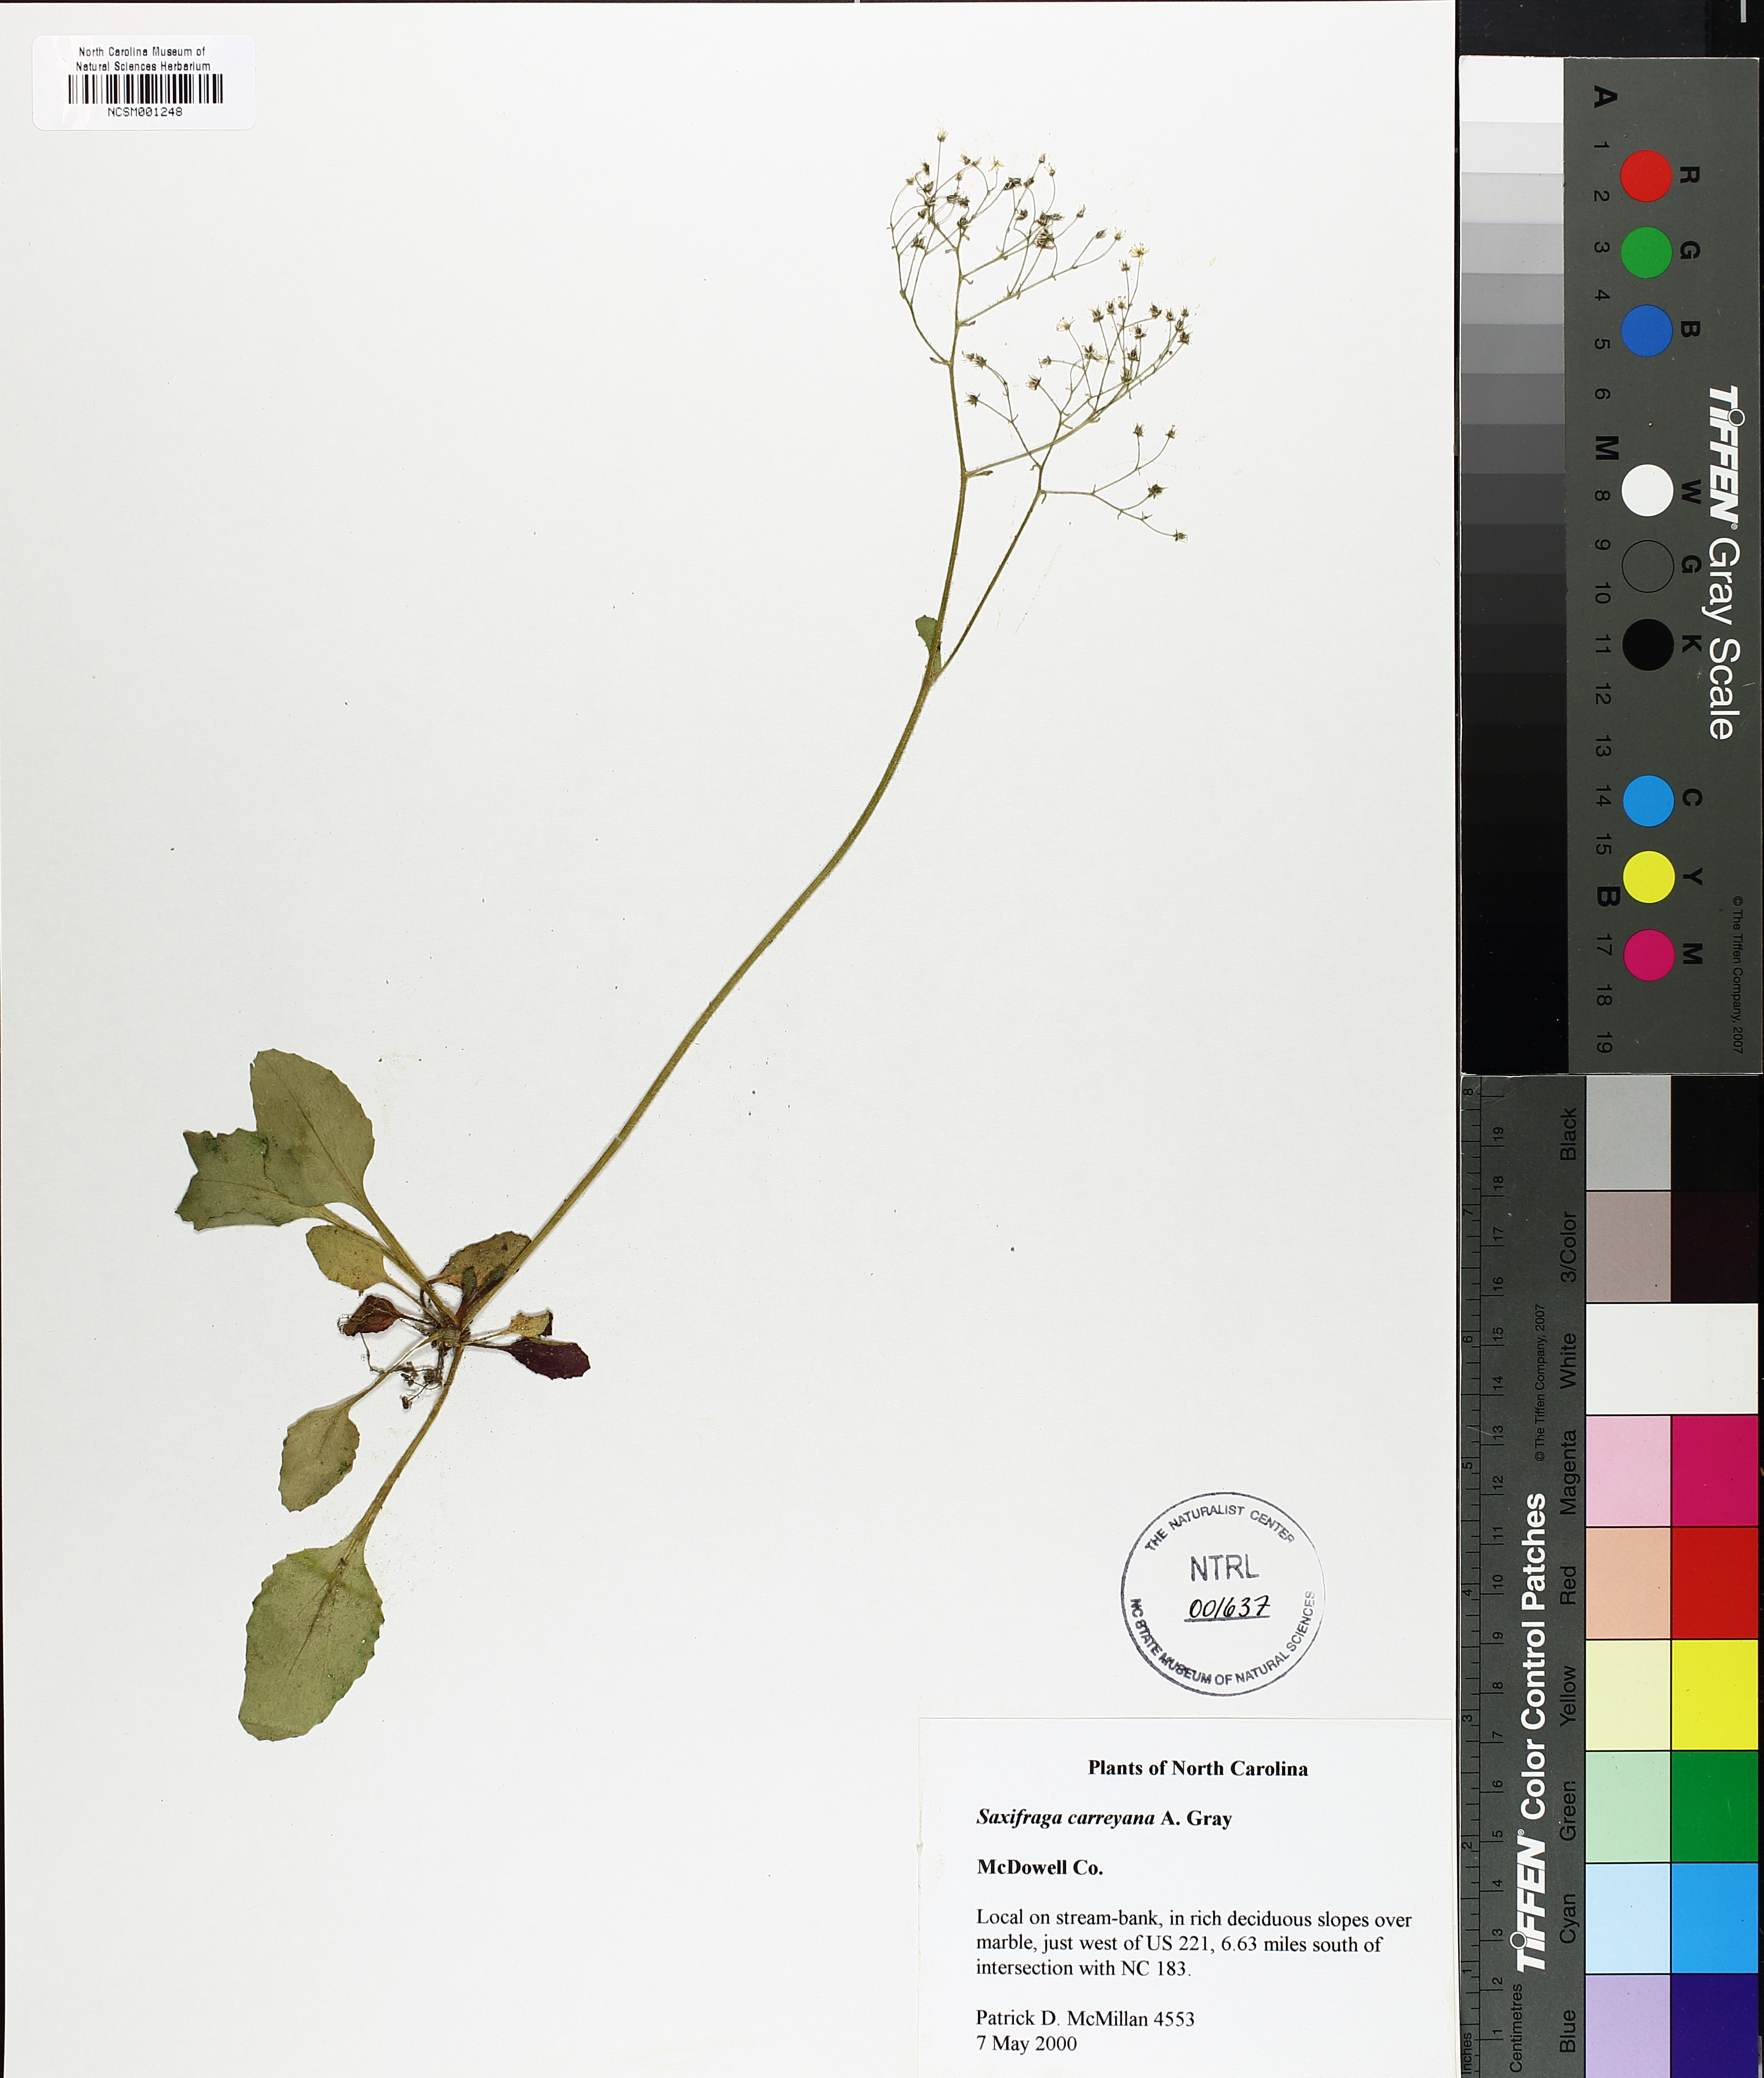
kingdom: Plantae
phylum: Tracheophyta
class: Magnoliopsida
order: Saxifragales
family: Saxifragaceae
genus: Micranthes
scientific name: Micranthes careyana
